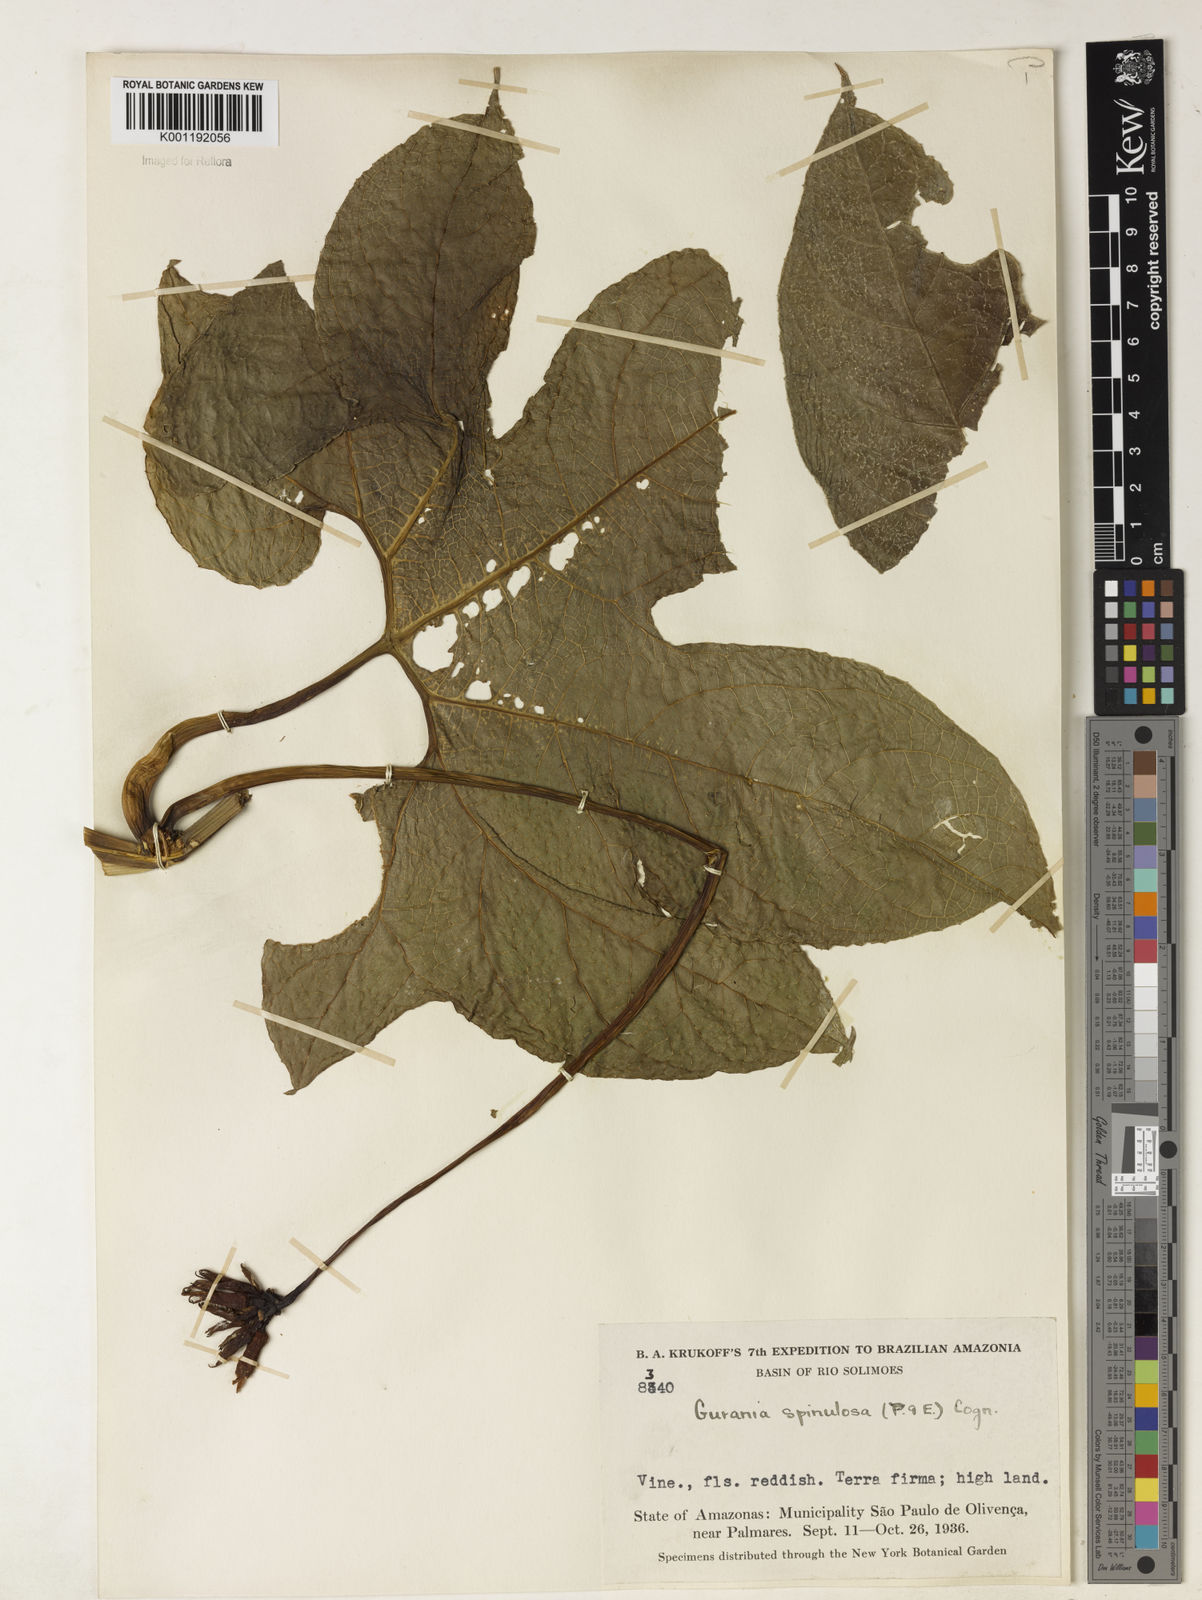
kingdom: Plantae
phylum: Tracheophyta
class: Magnoliopsida
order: Cucurbitales
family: Cucurbitaceae
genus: Gurania
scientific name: Gurania lobata
